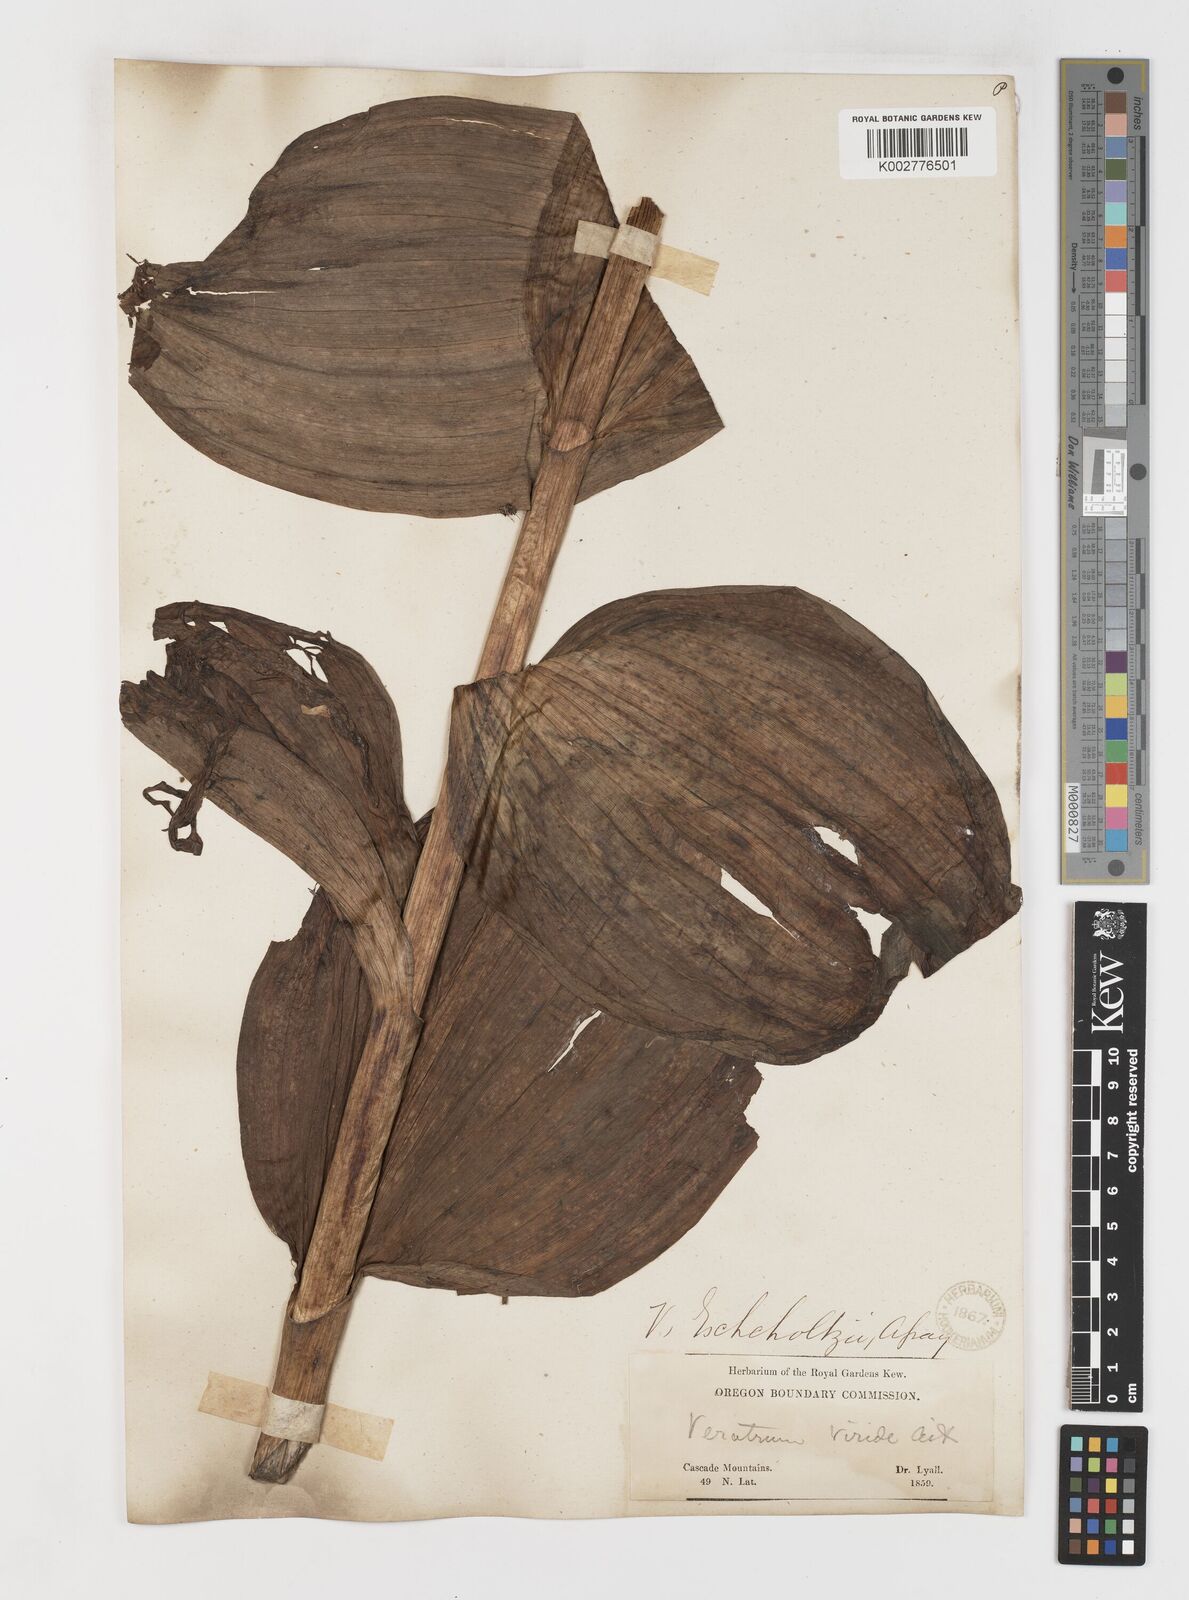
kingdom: Plantae
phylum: Tracheophyta
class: Liliopsida
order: Liliales
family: Melanthiaceae
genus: Veratrum
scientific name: Veratrum viride
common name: American false hellebore
